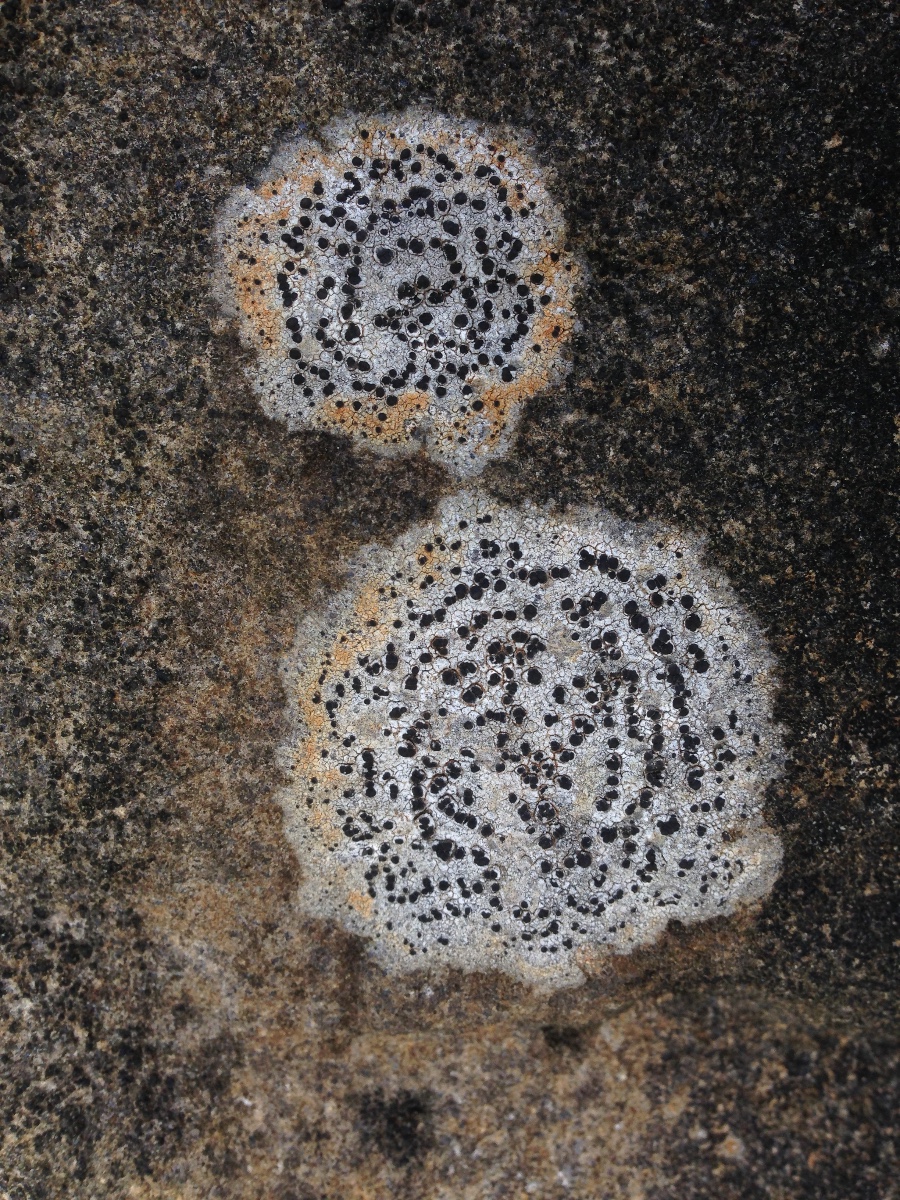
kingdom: Fungi
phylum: Ascomycota
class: Lecanoromycetes
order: Lecideales
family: Lecideaceae
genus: Porpidia
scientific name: Porpidia
